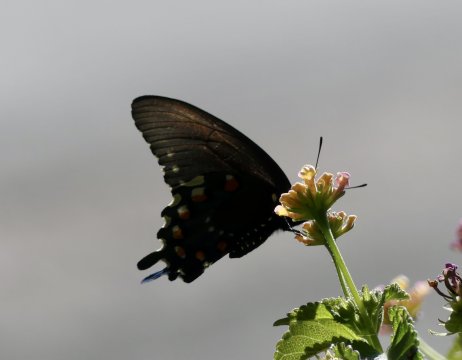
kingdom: Animalia
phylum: Arthropoda
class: Insecta
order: Lepidoptera
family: Papilionidae
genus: Battus
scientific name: Battus philenor
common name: Pipevine Swallowtail
